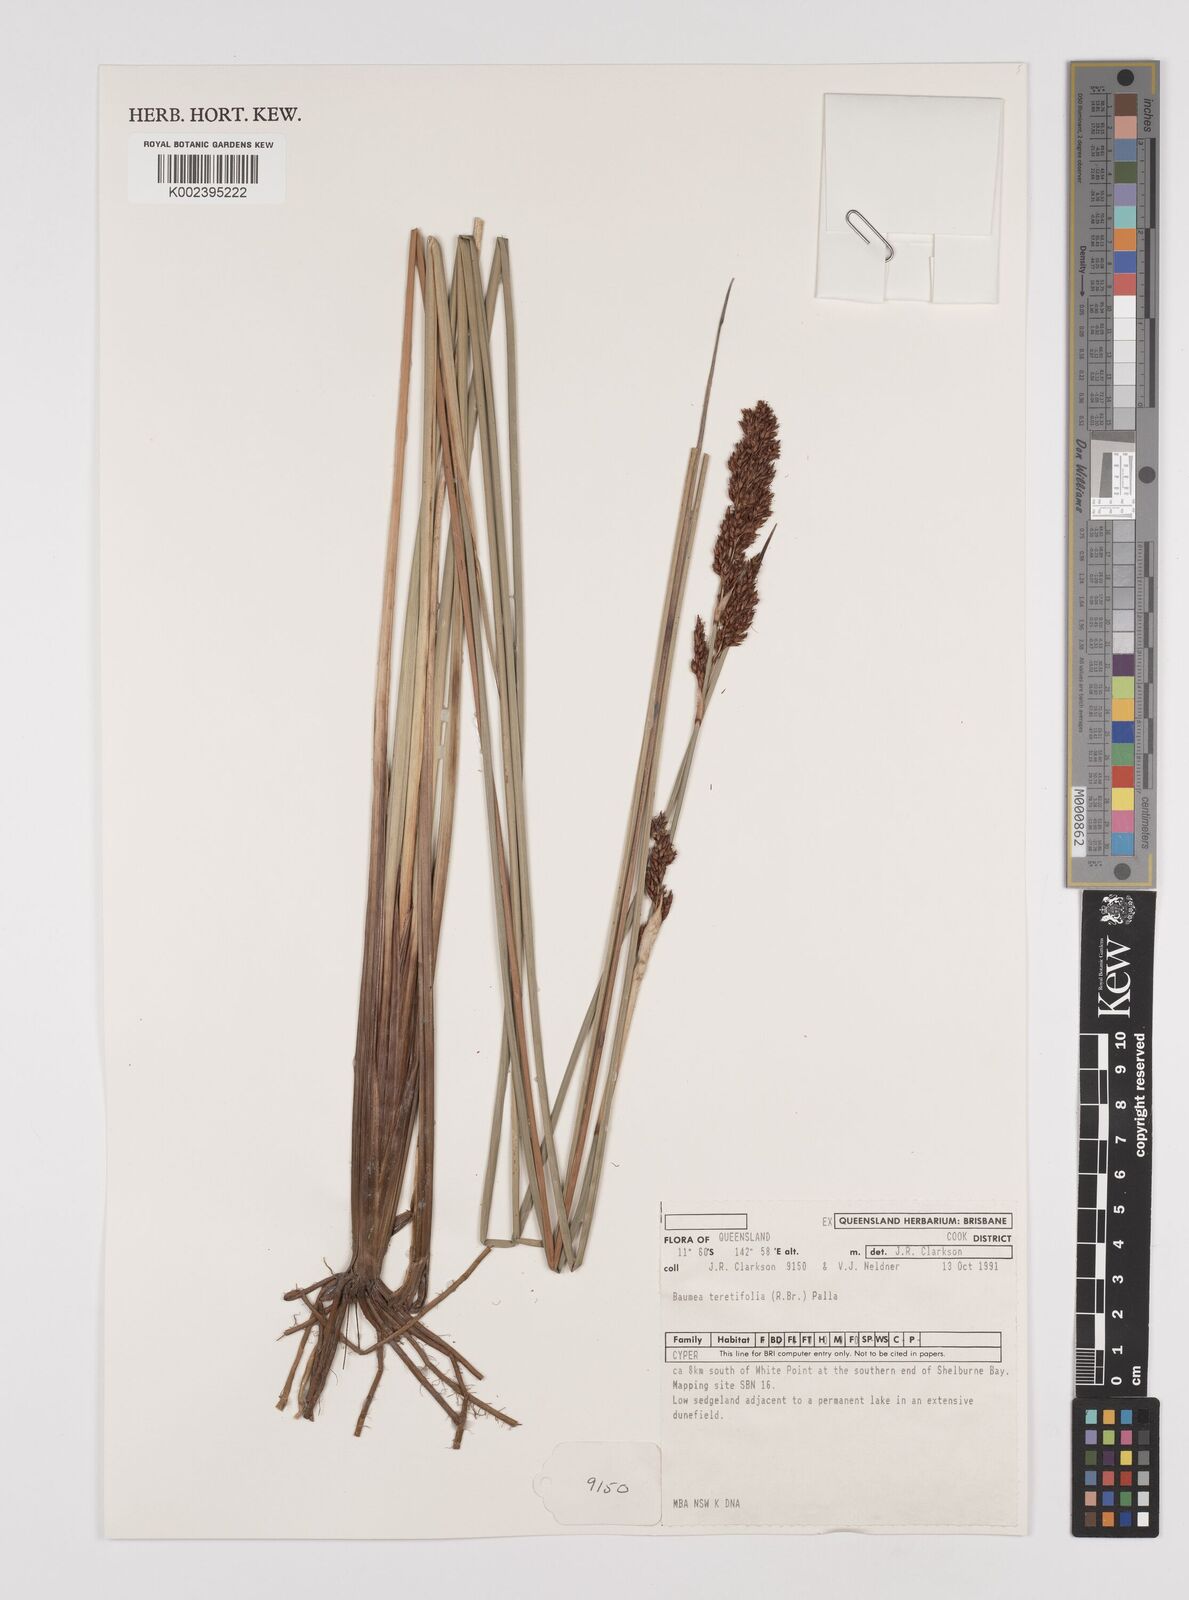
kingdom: Plantae
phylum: Tracheophyta
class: Liliopsida
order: Poales
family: Cyperaceae
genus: Machaerina
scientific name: Machaerina teretifolia
